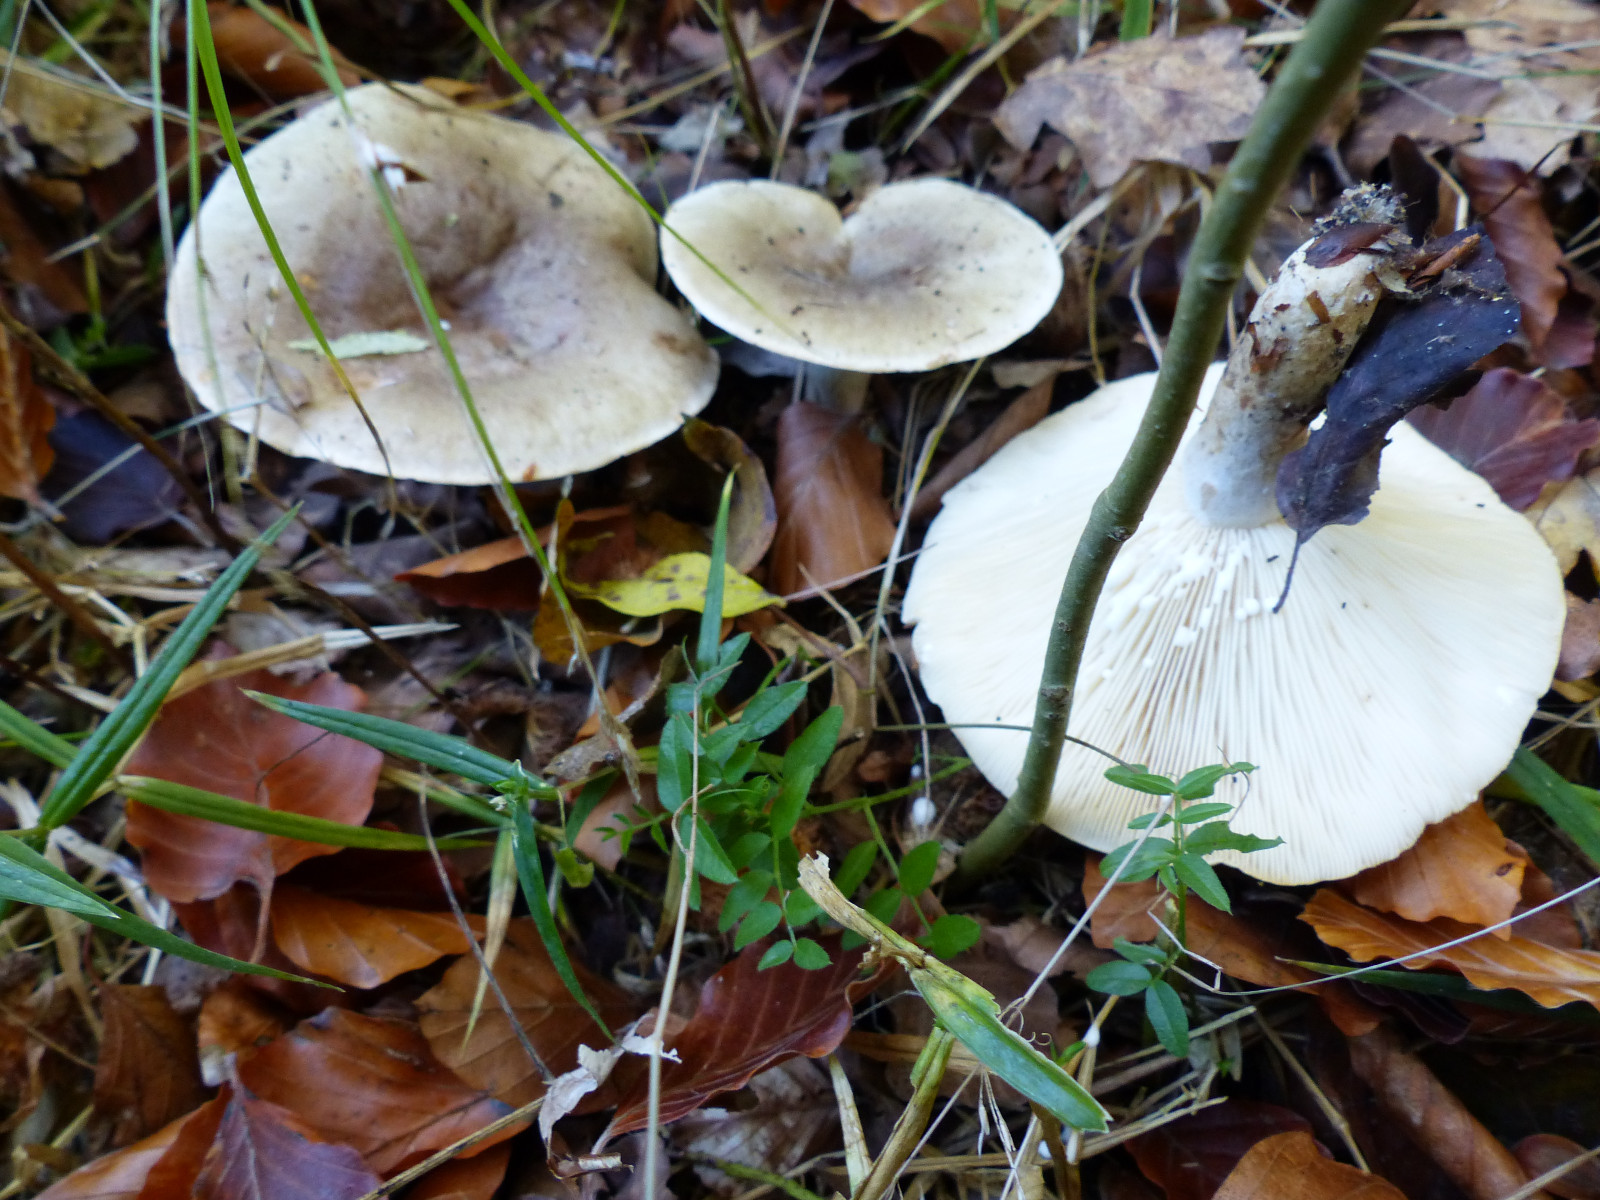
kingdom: Fungi
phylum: Basidiomycota
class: Agaricomycetes
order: Russulales
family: Russulaceae
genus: Lactarius
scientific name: Lactarius fluens
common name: lysrandet mælkehat
